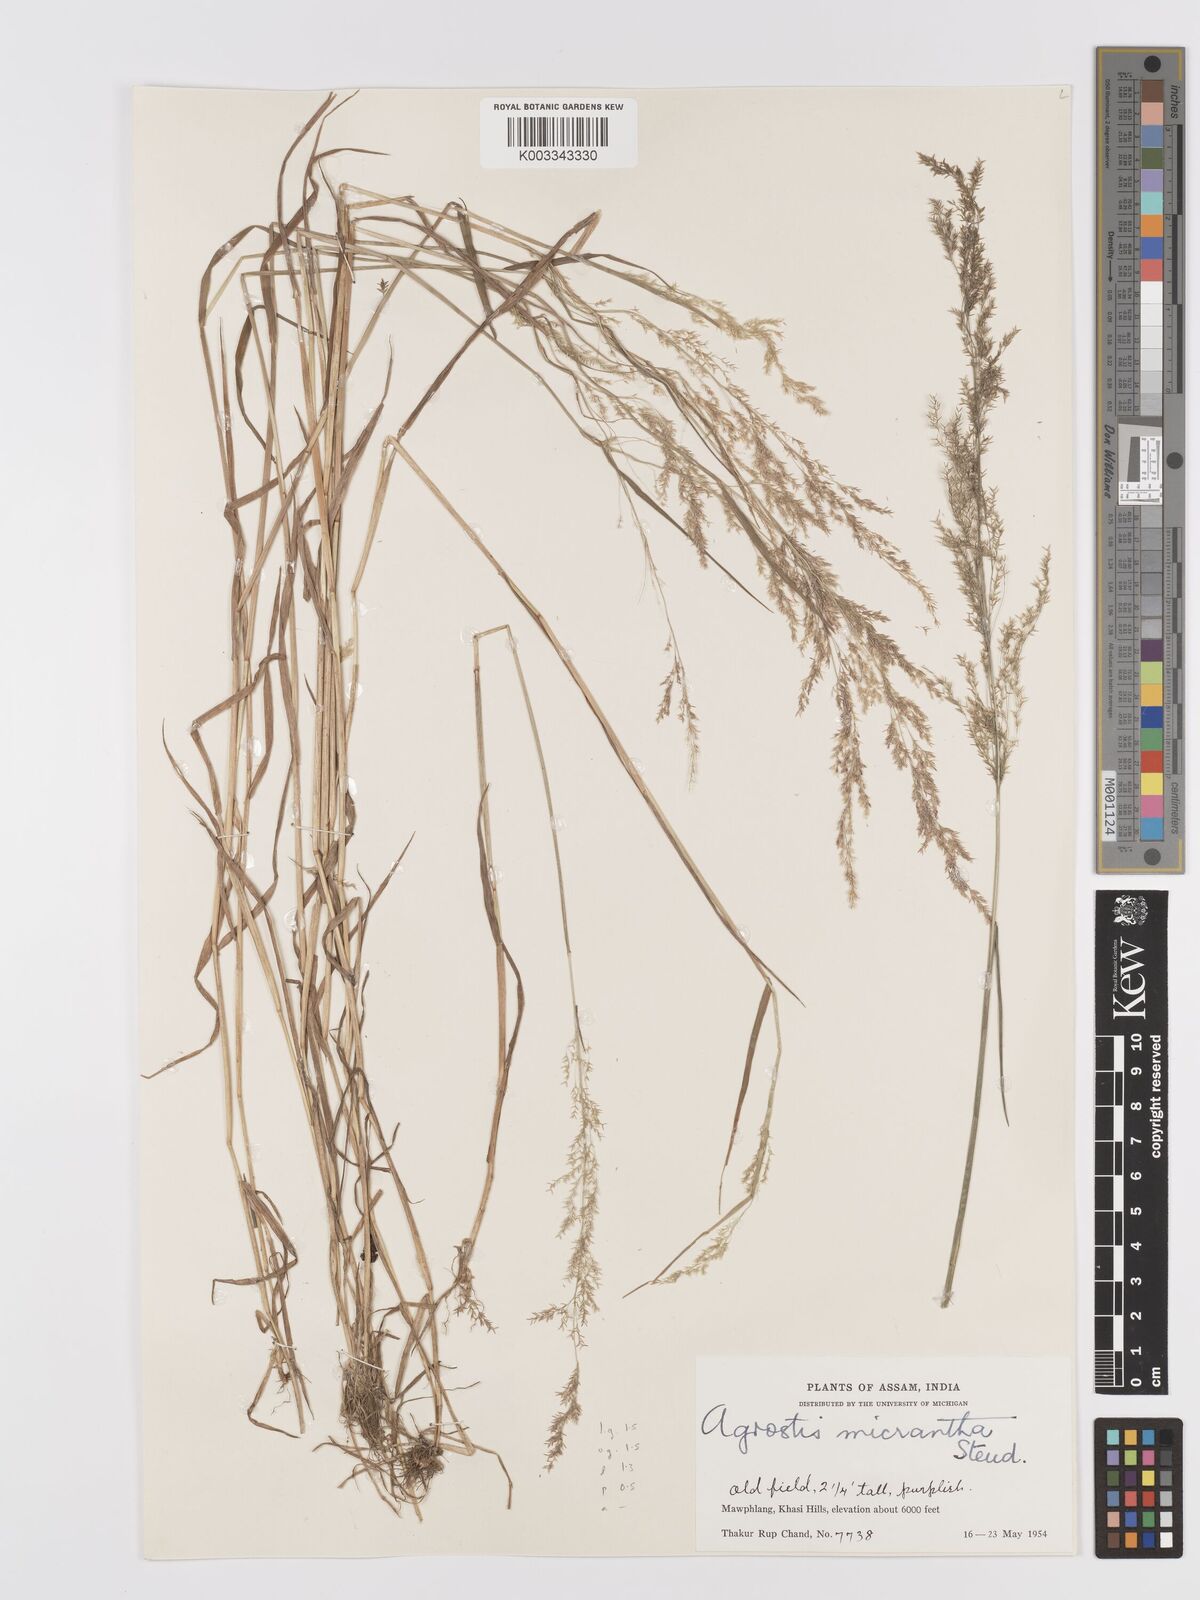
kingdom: Plantae
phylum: Tracheophyta
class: Liliopsida
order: Poales
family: Poaceae
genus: Agrostis
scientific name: Agrostis micrantha
